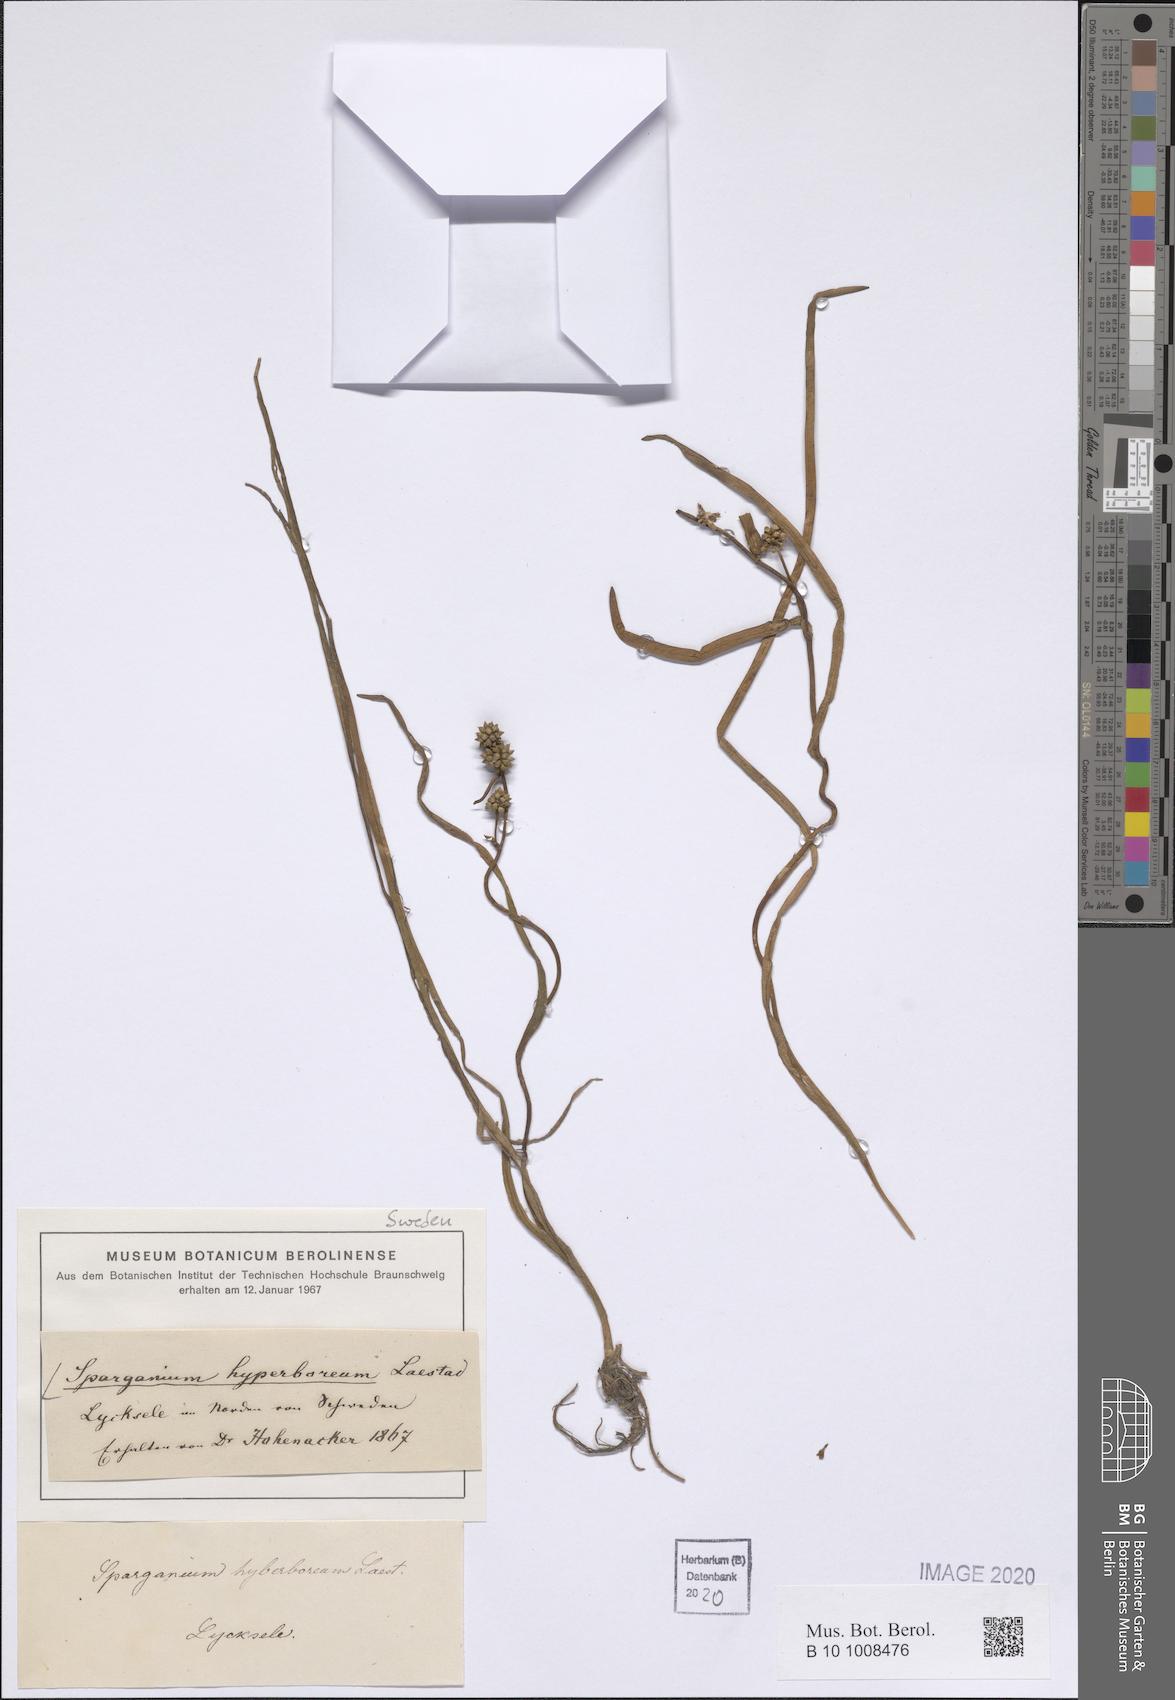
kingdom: Plantae
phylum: Tracheophyta
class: Liliopsida
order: Poales
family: Typhaceae
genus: Sparganium
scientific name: Sparganium hyperboreum
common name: Arctic burreed
